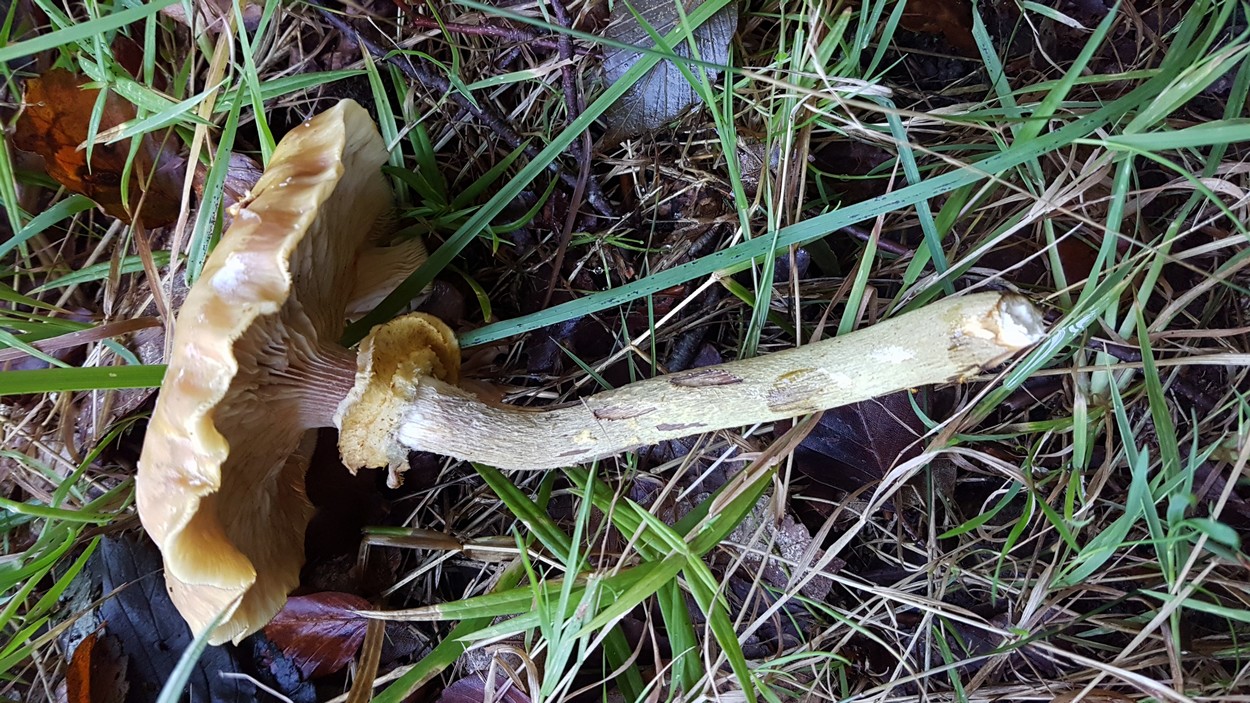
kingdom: Fungi
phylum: Basidiomycota
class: Agaricomycetes
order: Agaricales
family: Physalacriaceae
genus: Armillaria
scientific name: Armillaria mellea
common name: ægte honningsvamp
